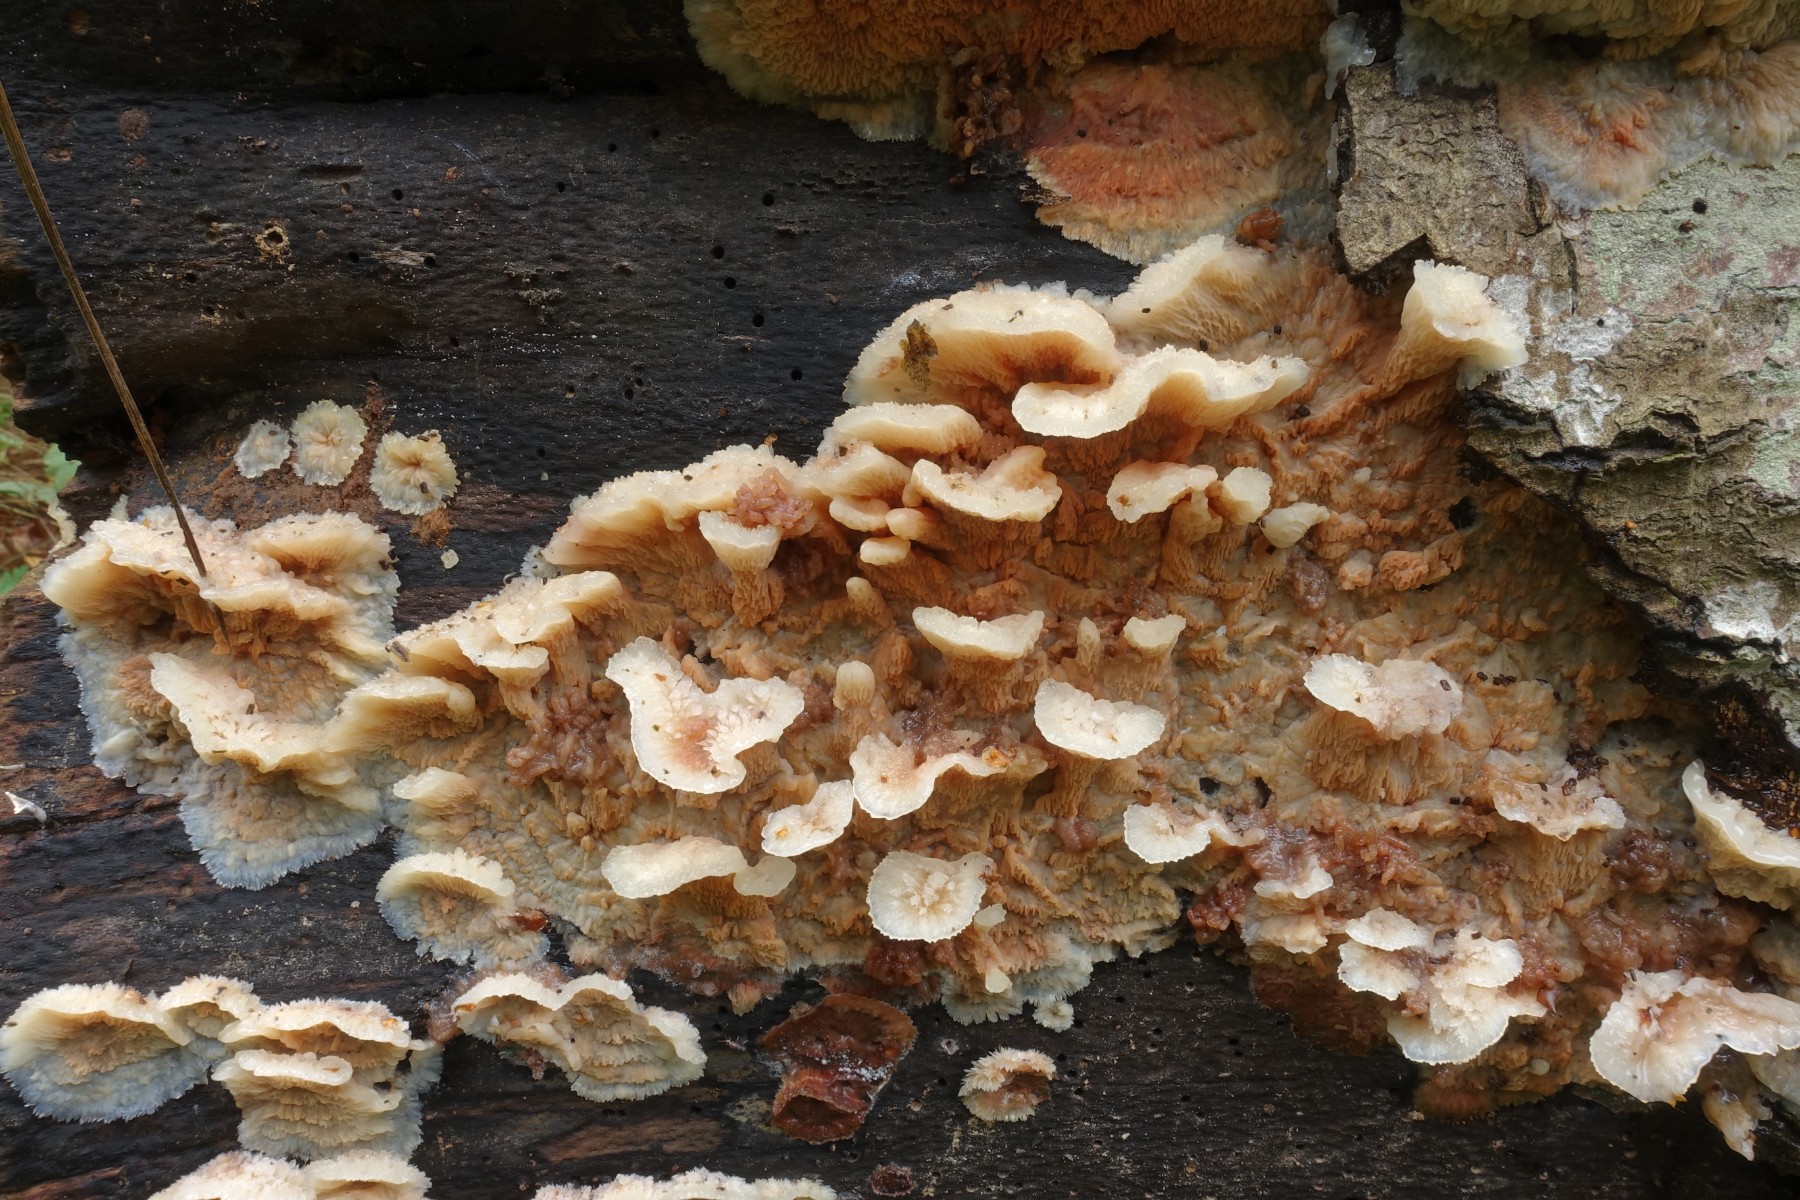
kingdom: Fungi
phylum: Basidiomycota
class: Agaricomycetes
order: Polyporales
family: Meruliaceae
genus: Phlebia
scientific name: Phlebia tremellosa
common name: bævrende åresvamp
